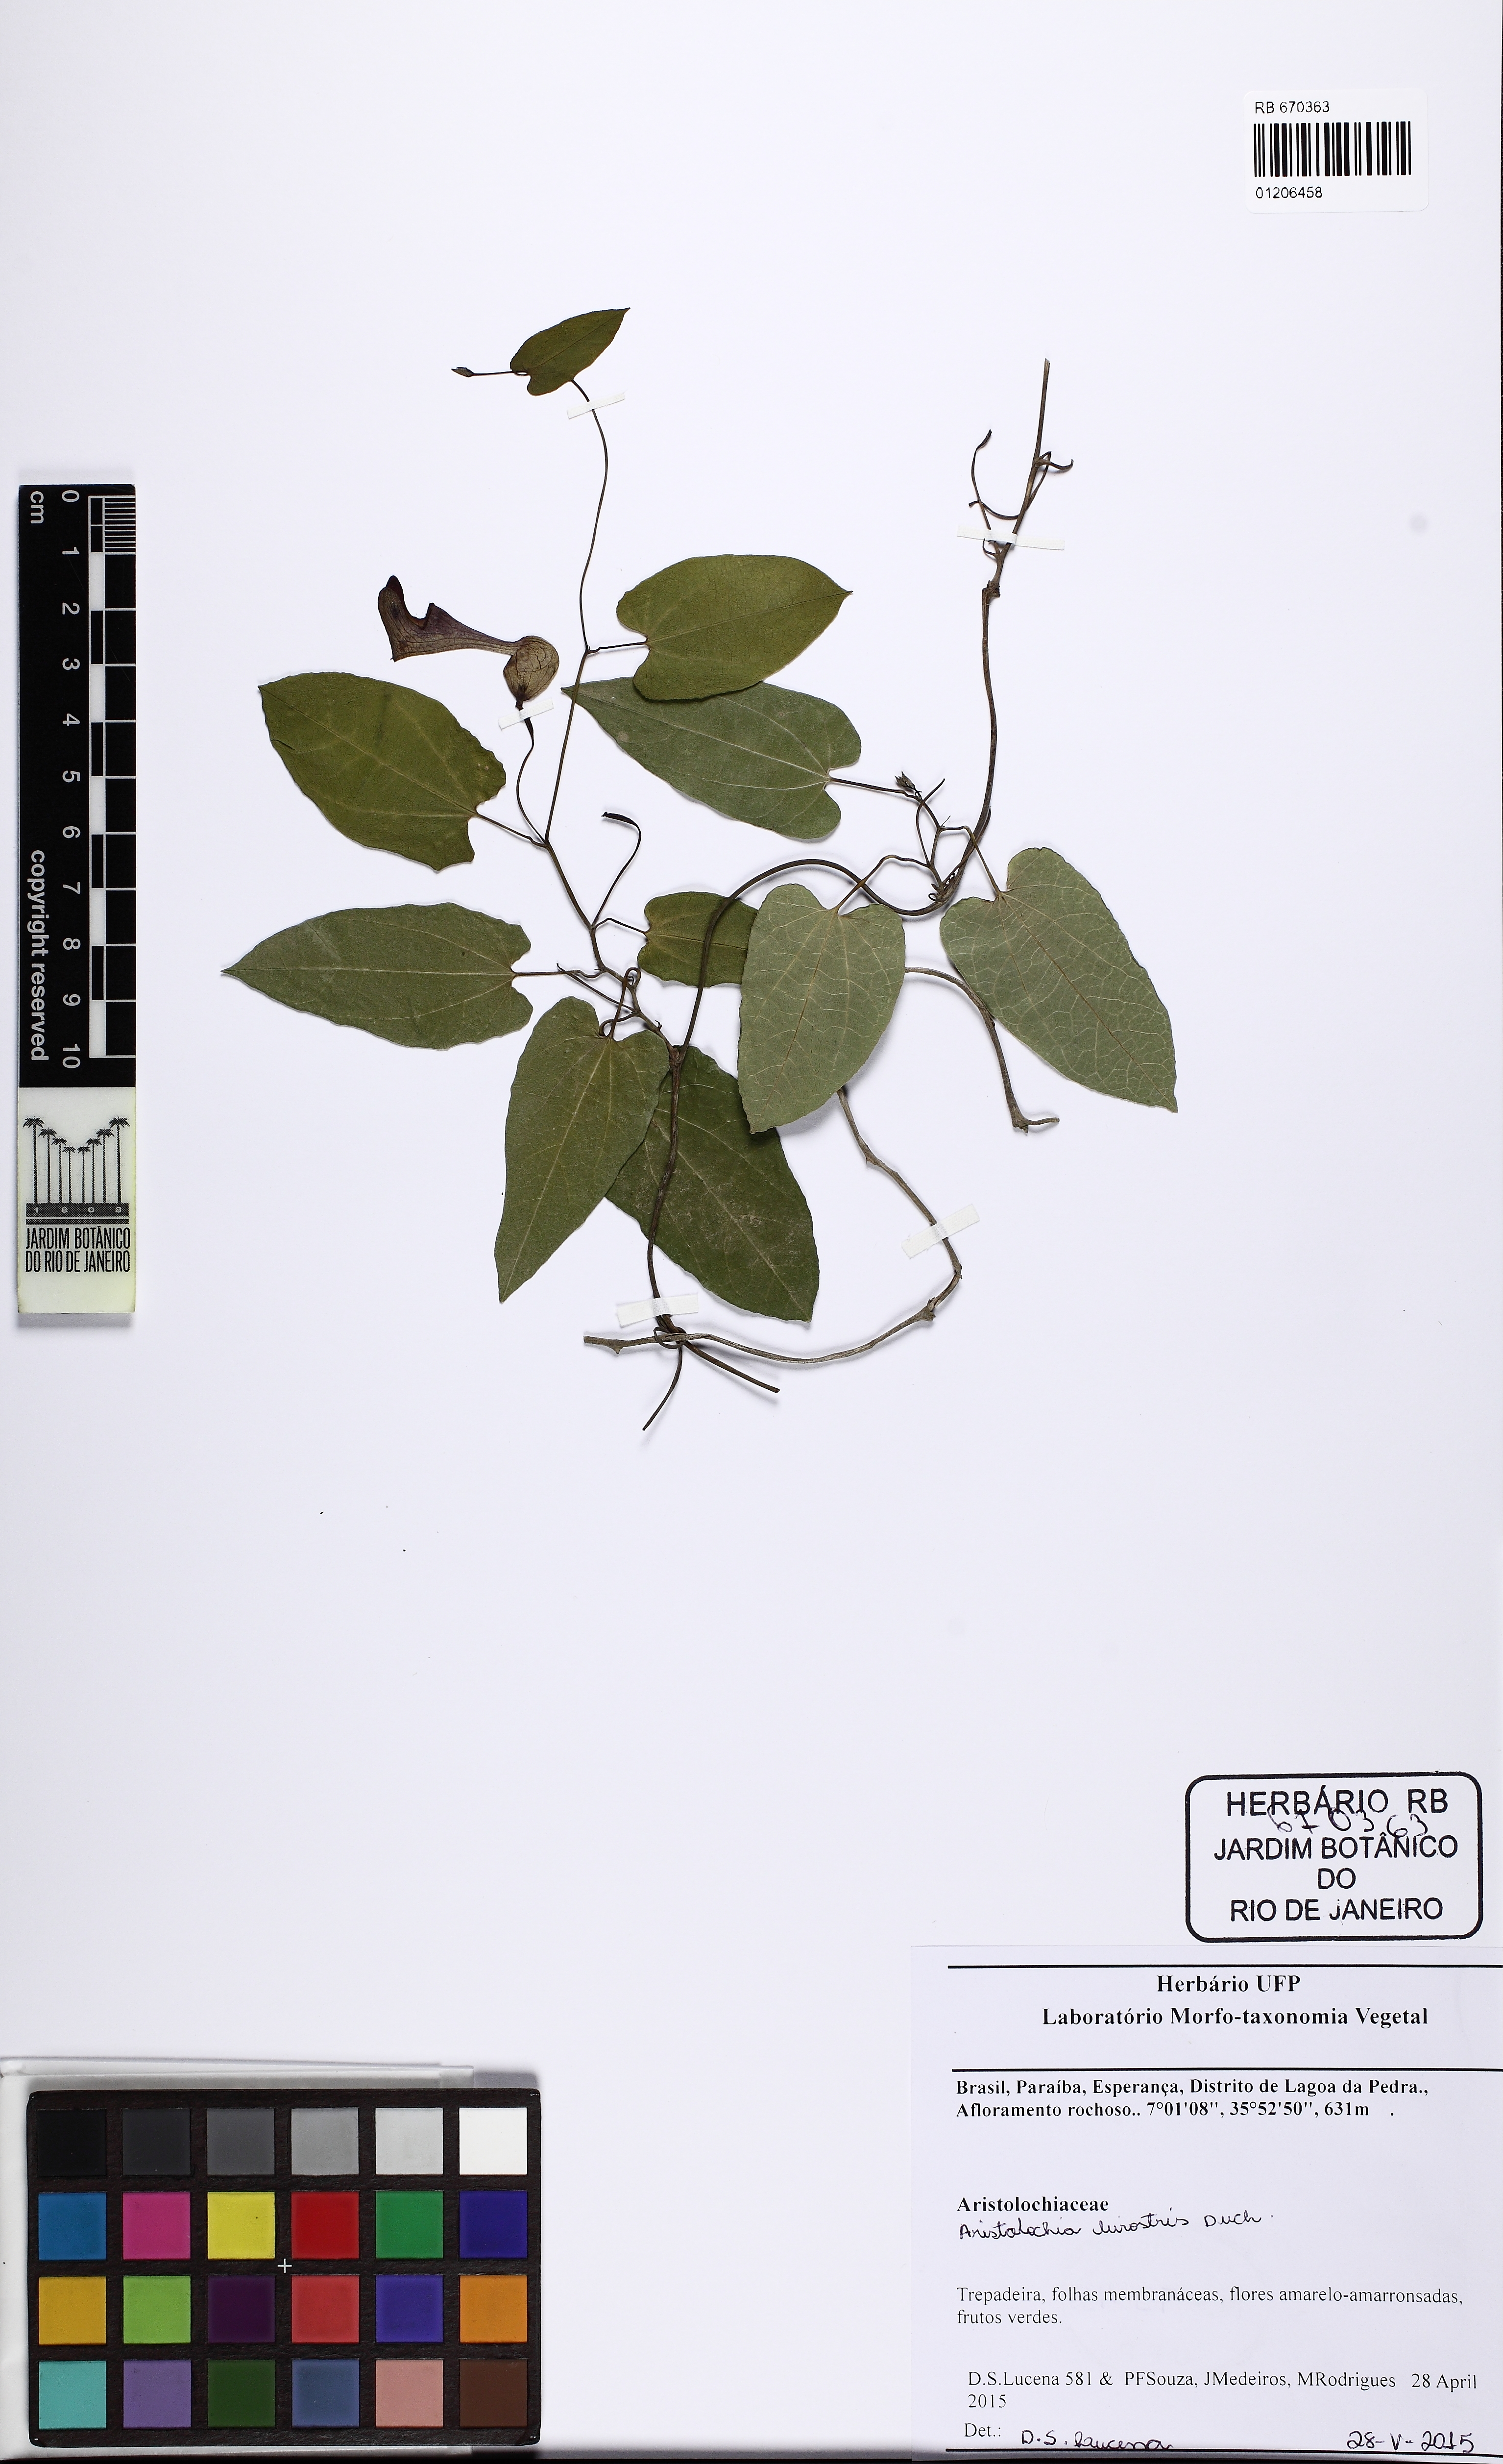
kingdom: Plantae
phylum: Tracheophyta
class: Magnoliopsida
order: Piperales
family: Aristolochiaceae
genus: Aristolochia
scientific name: Aristolochia birostris
